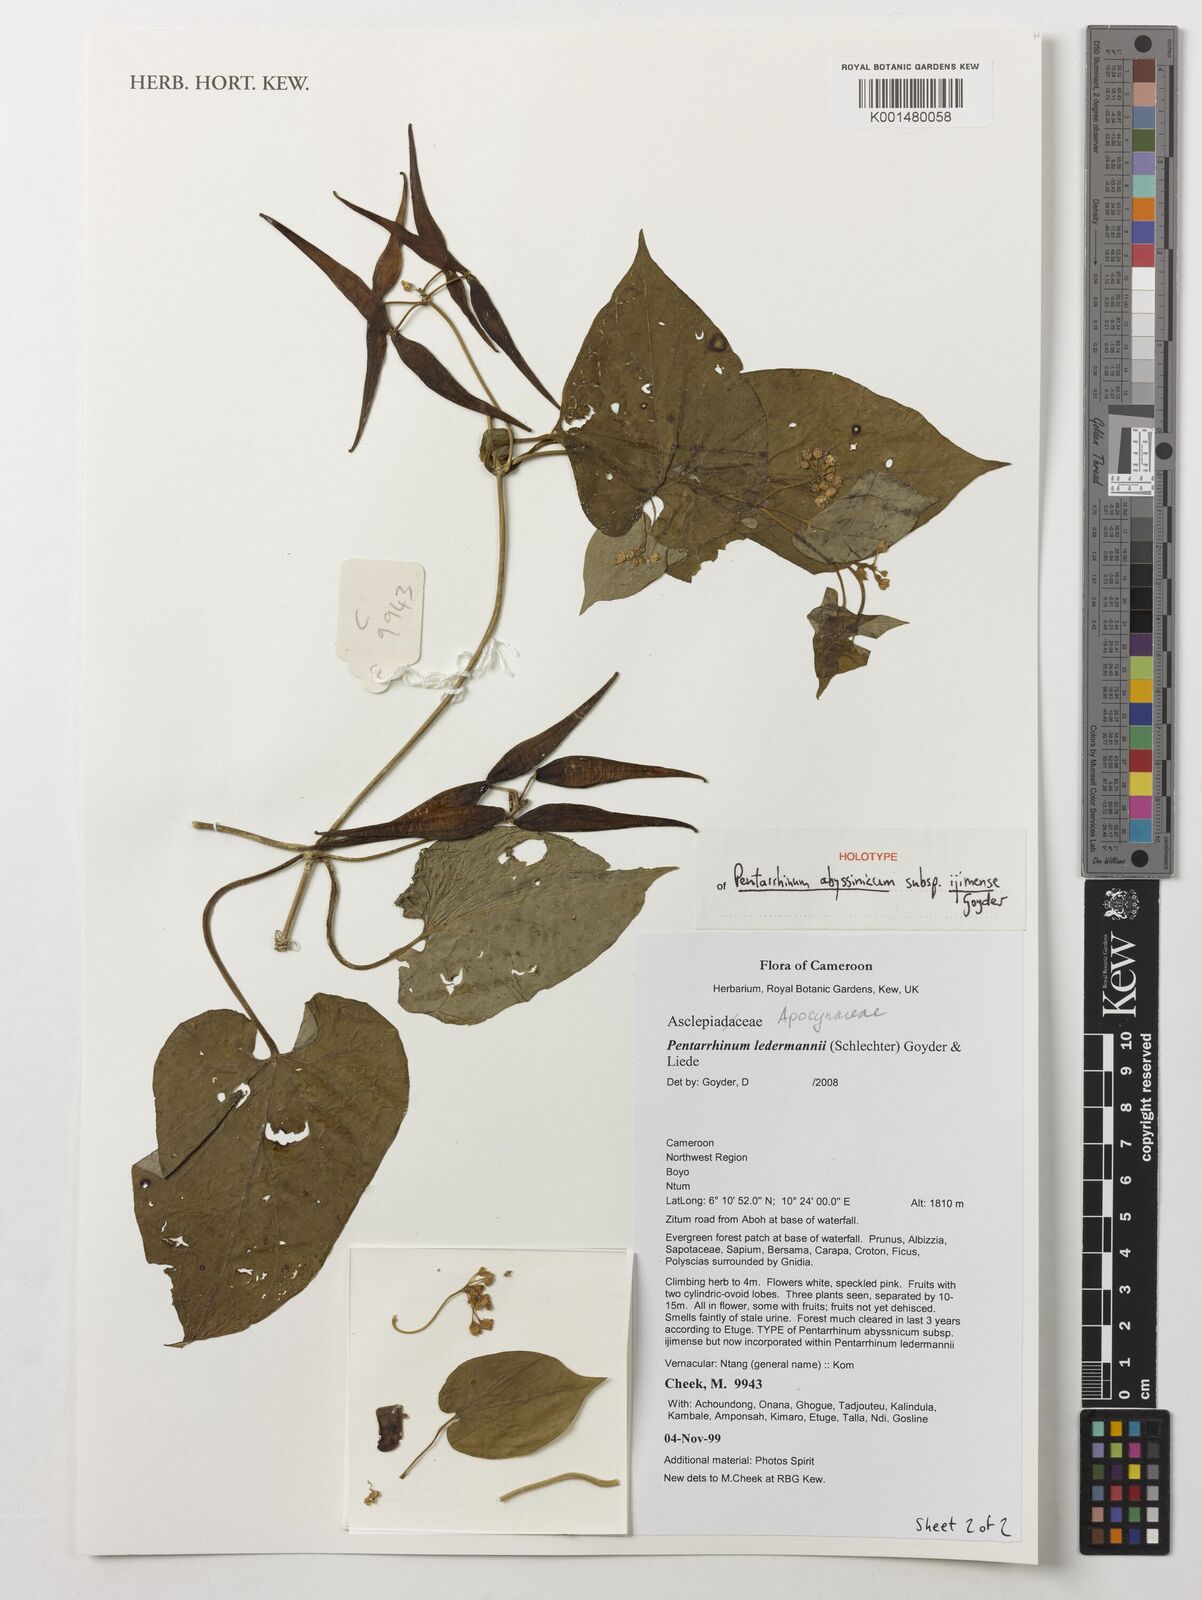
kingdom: Plantae
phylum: Tracheophyta
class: Magnoliopsida
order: Gentianales
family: Apocynaceae
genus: Cynanchum
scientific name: Cynanchum ledermannii
